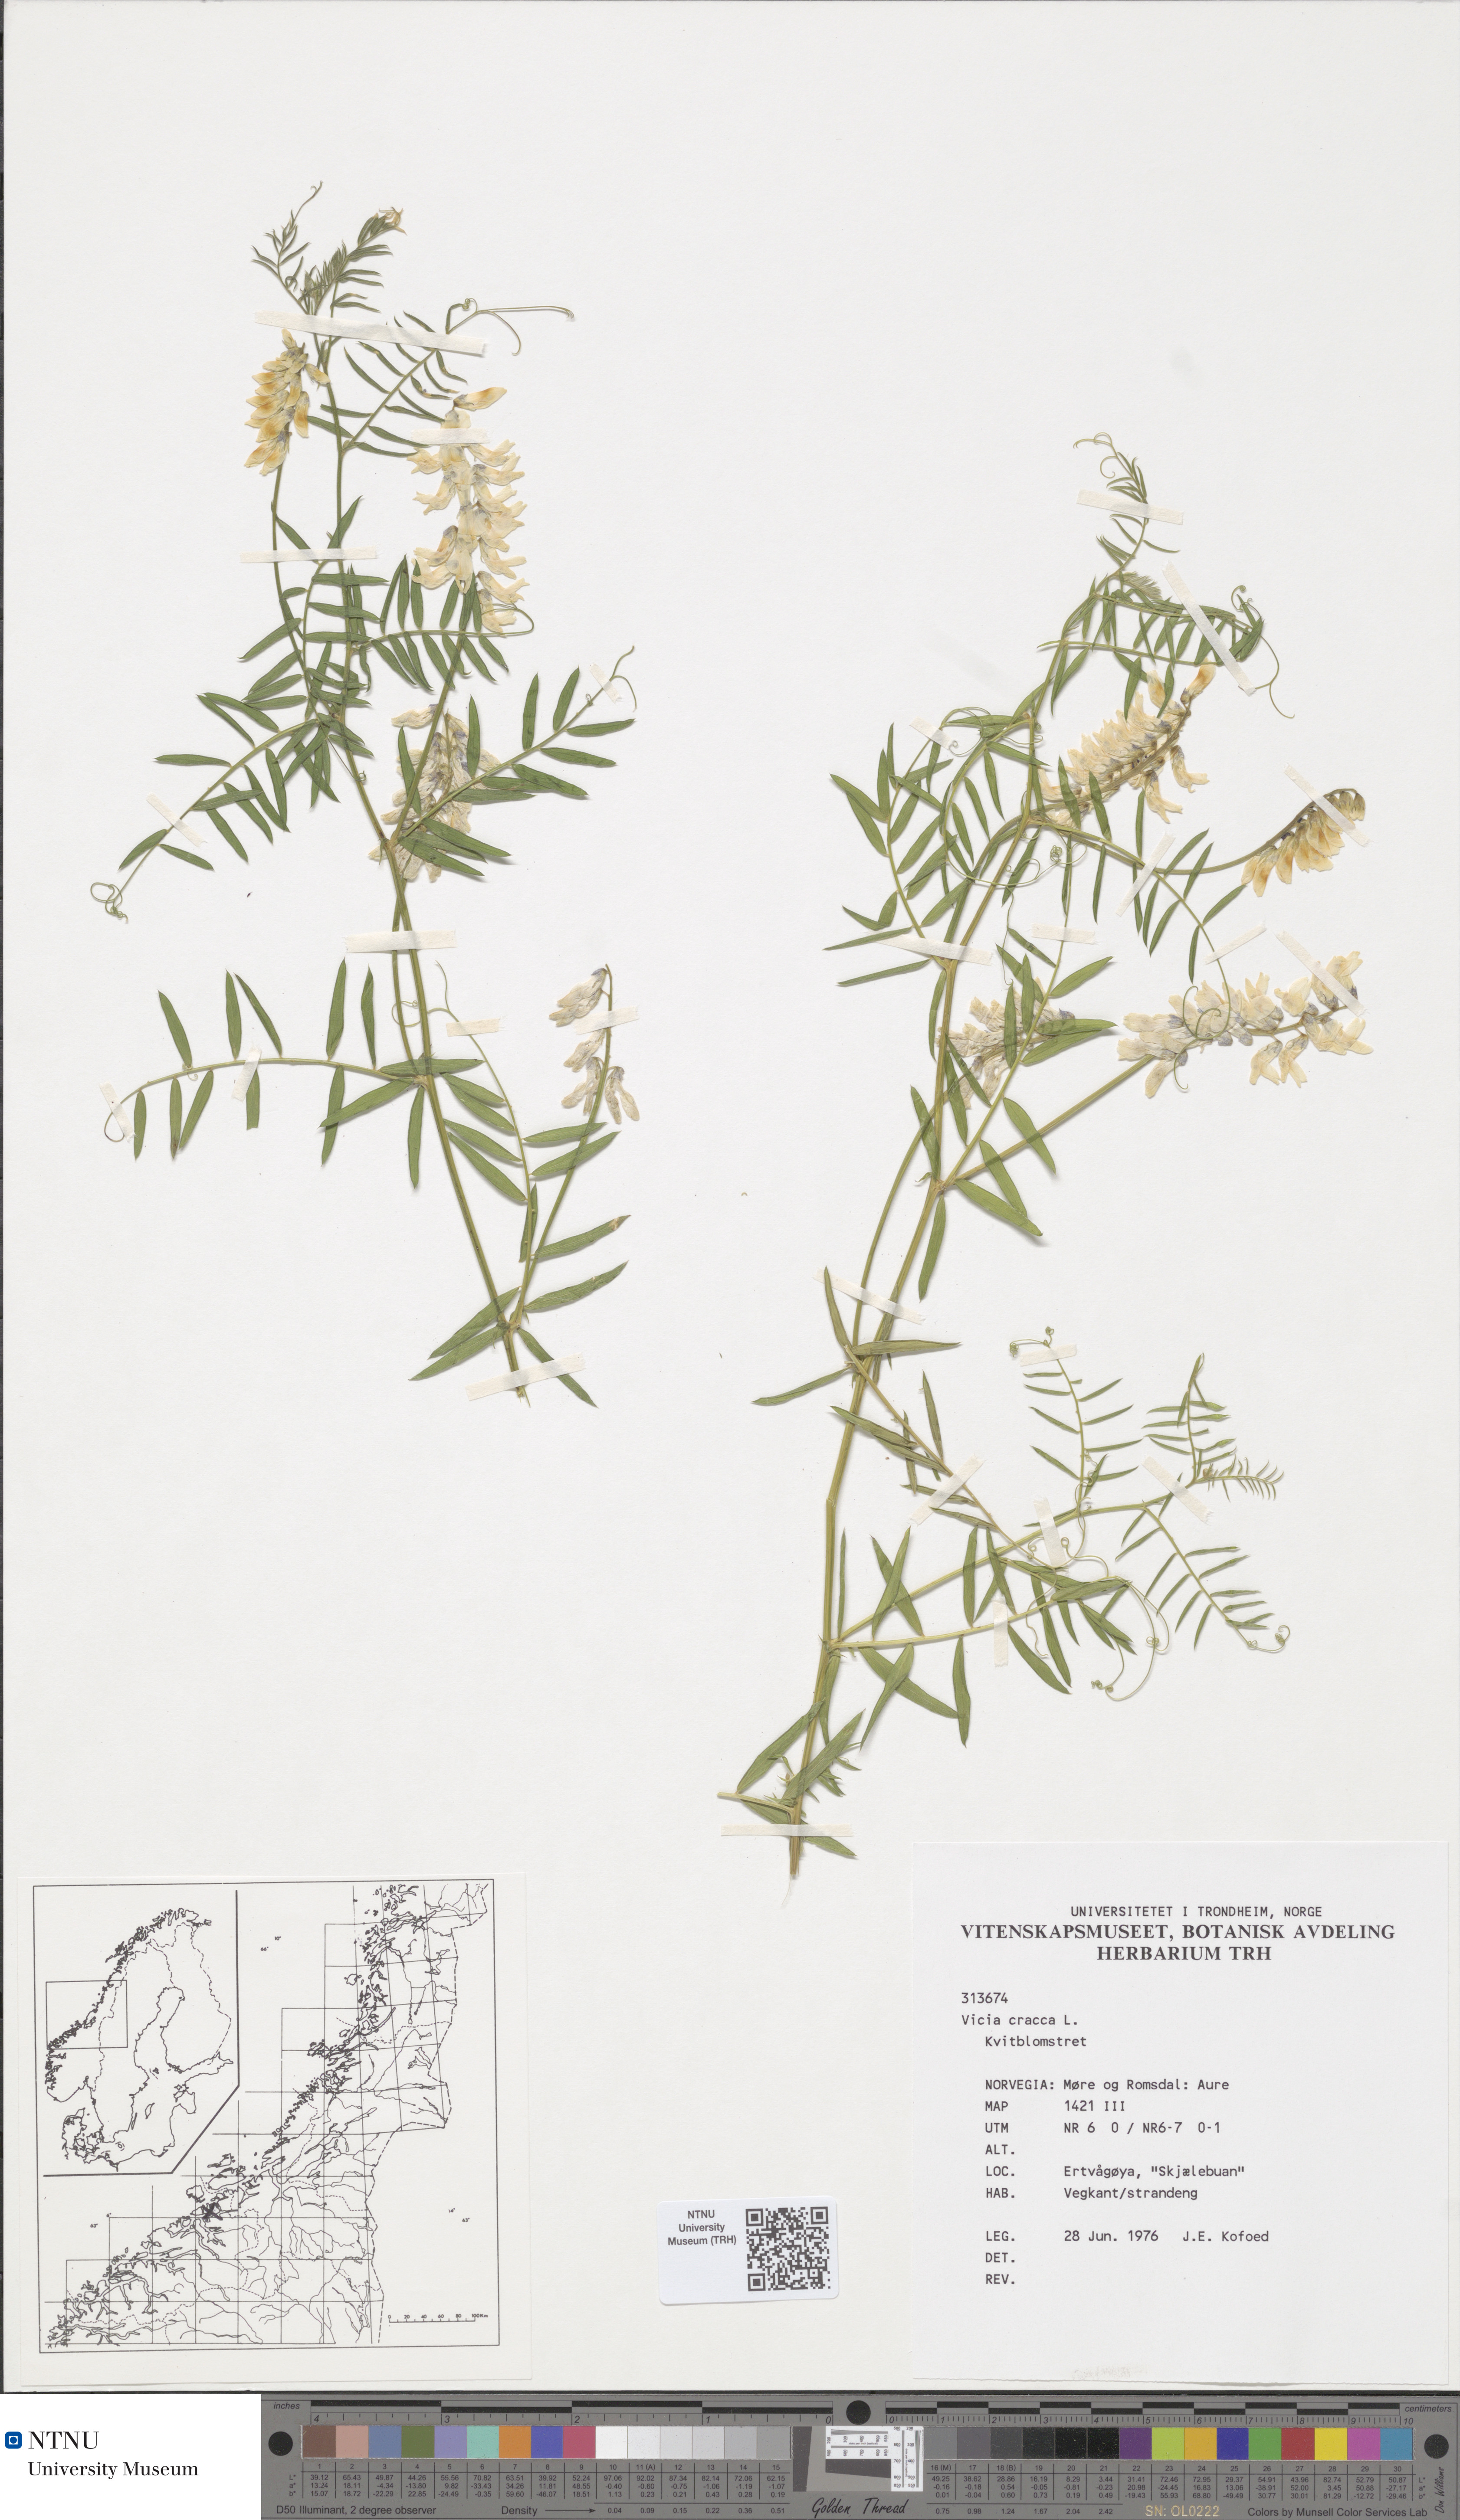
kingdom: Plantae
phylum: Tracheophyta
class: Magnoliopsida
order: Fabales
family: Fabaceae
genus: Vicia
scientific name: Vicia cracca
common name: Bird vetch
